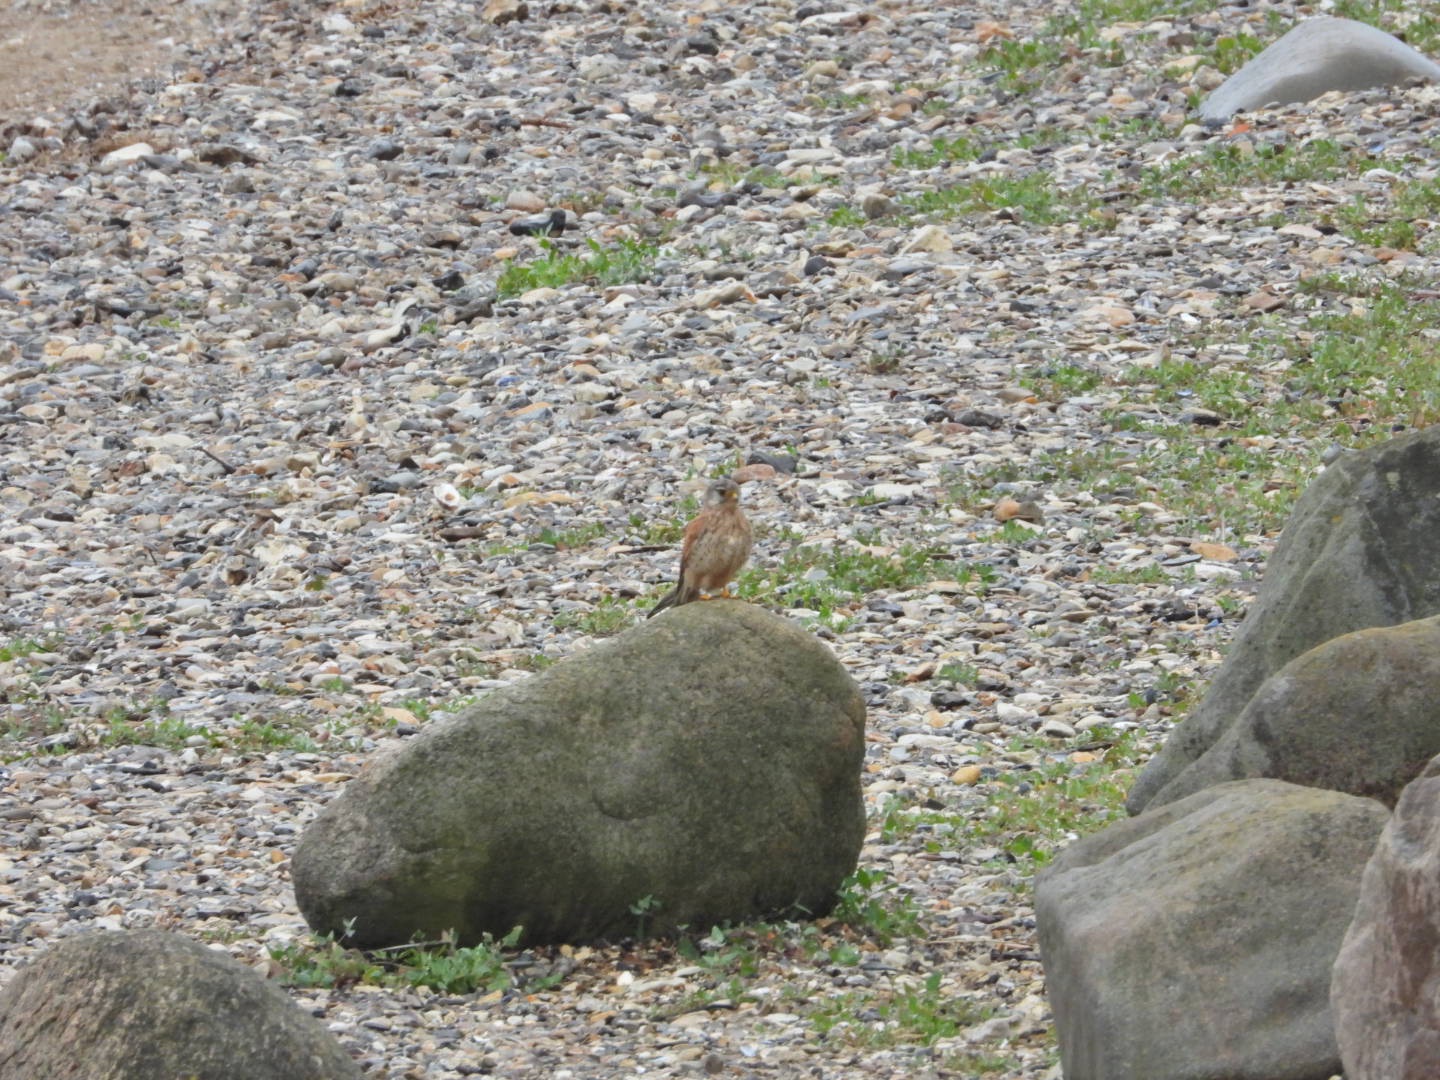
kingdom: Animalia
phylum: Chordata
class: Aves
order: Falconiformes
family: Falconidae
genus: Falco
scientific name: Falco tinnunculus
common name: Tårnfalk
